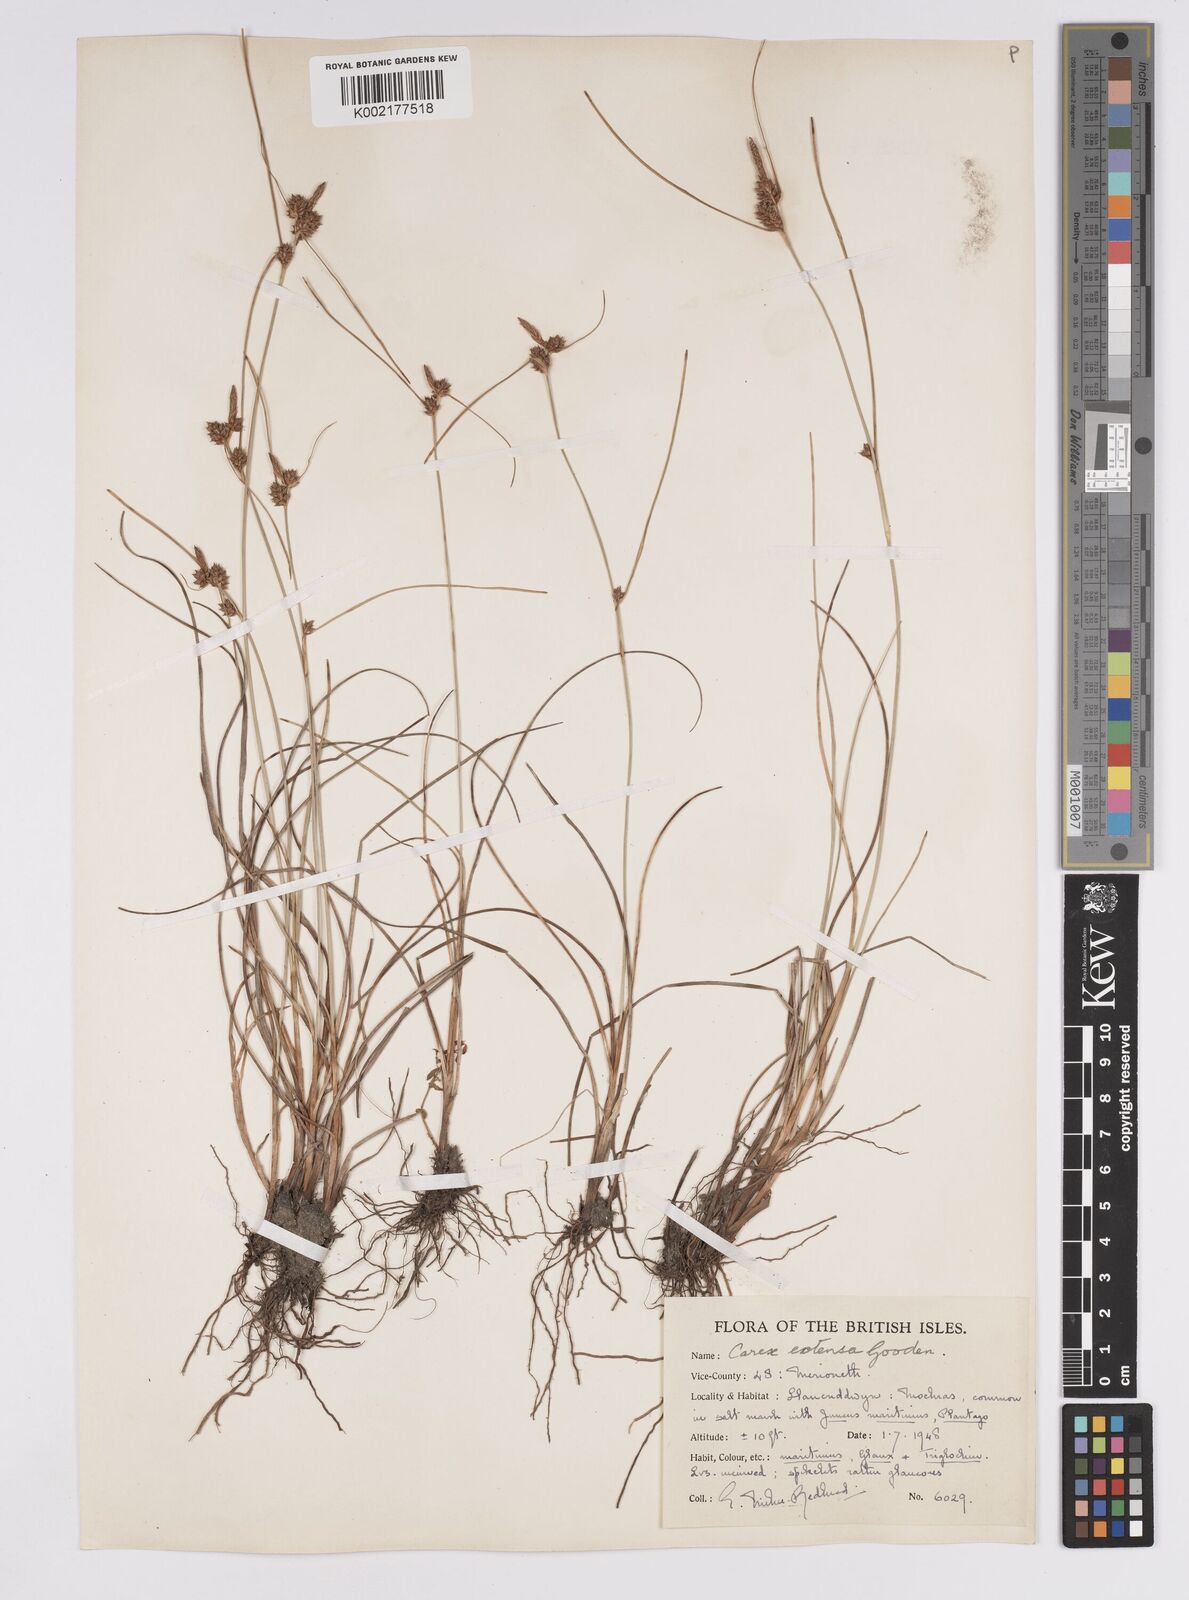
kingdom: Plantae
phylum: Tracheophyta
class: Liliopsida
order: Poales
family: Cyperaceae
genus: Carex
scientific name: Carex extensa
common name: Long-bracted sedge
